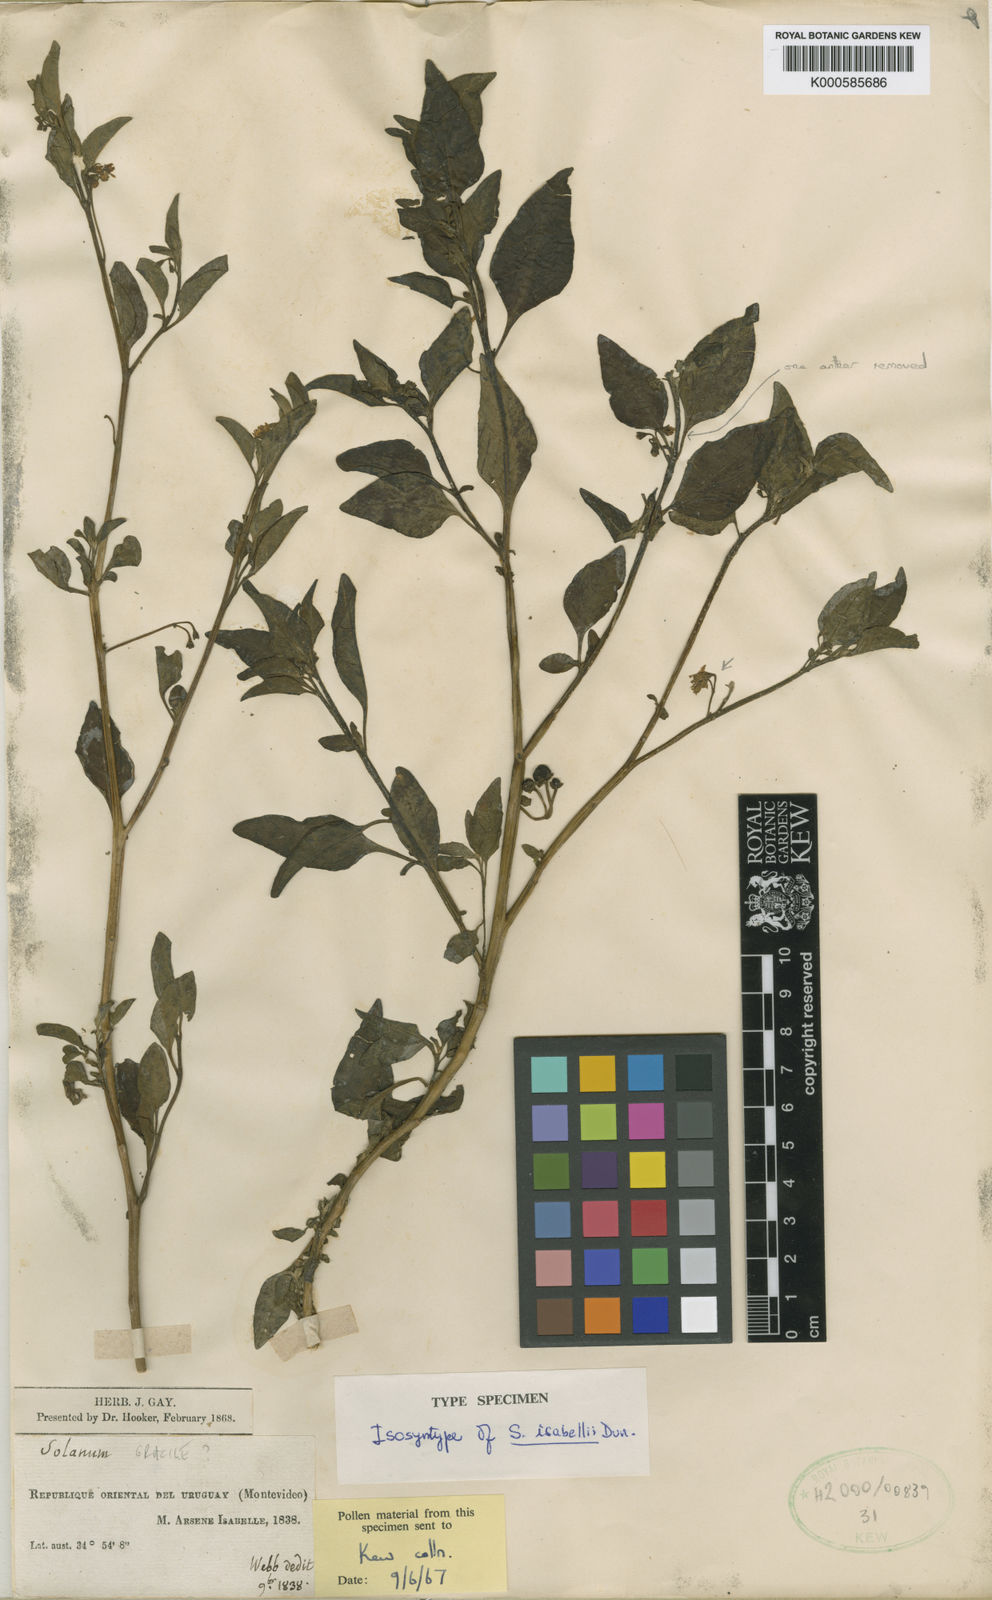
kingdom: Plantae
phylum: Tracheophyta
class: Magnoliopsida
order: Solanales
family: Solanaceae
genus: Solanum
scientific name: Solanum chenopodioides
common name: Tall nightshade
